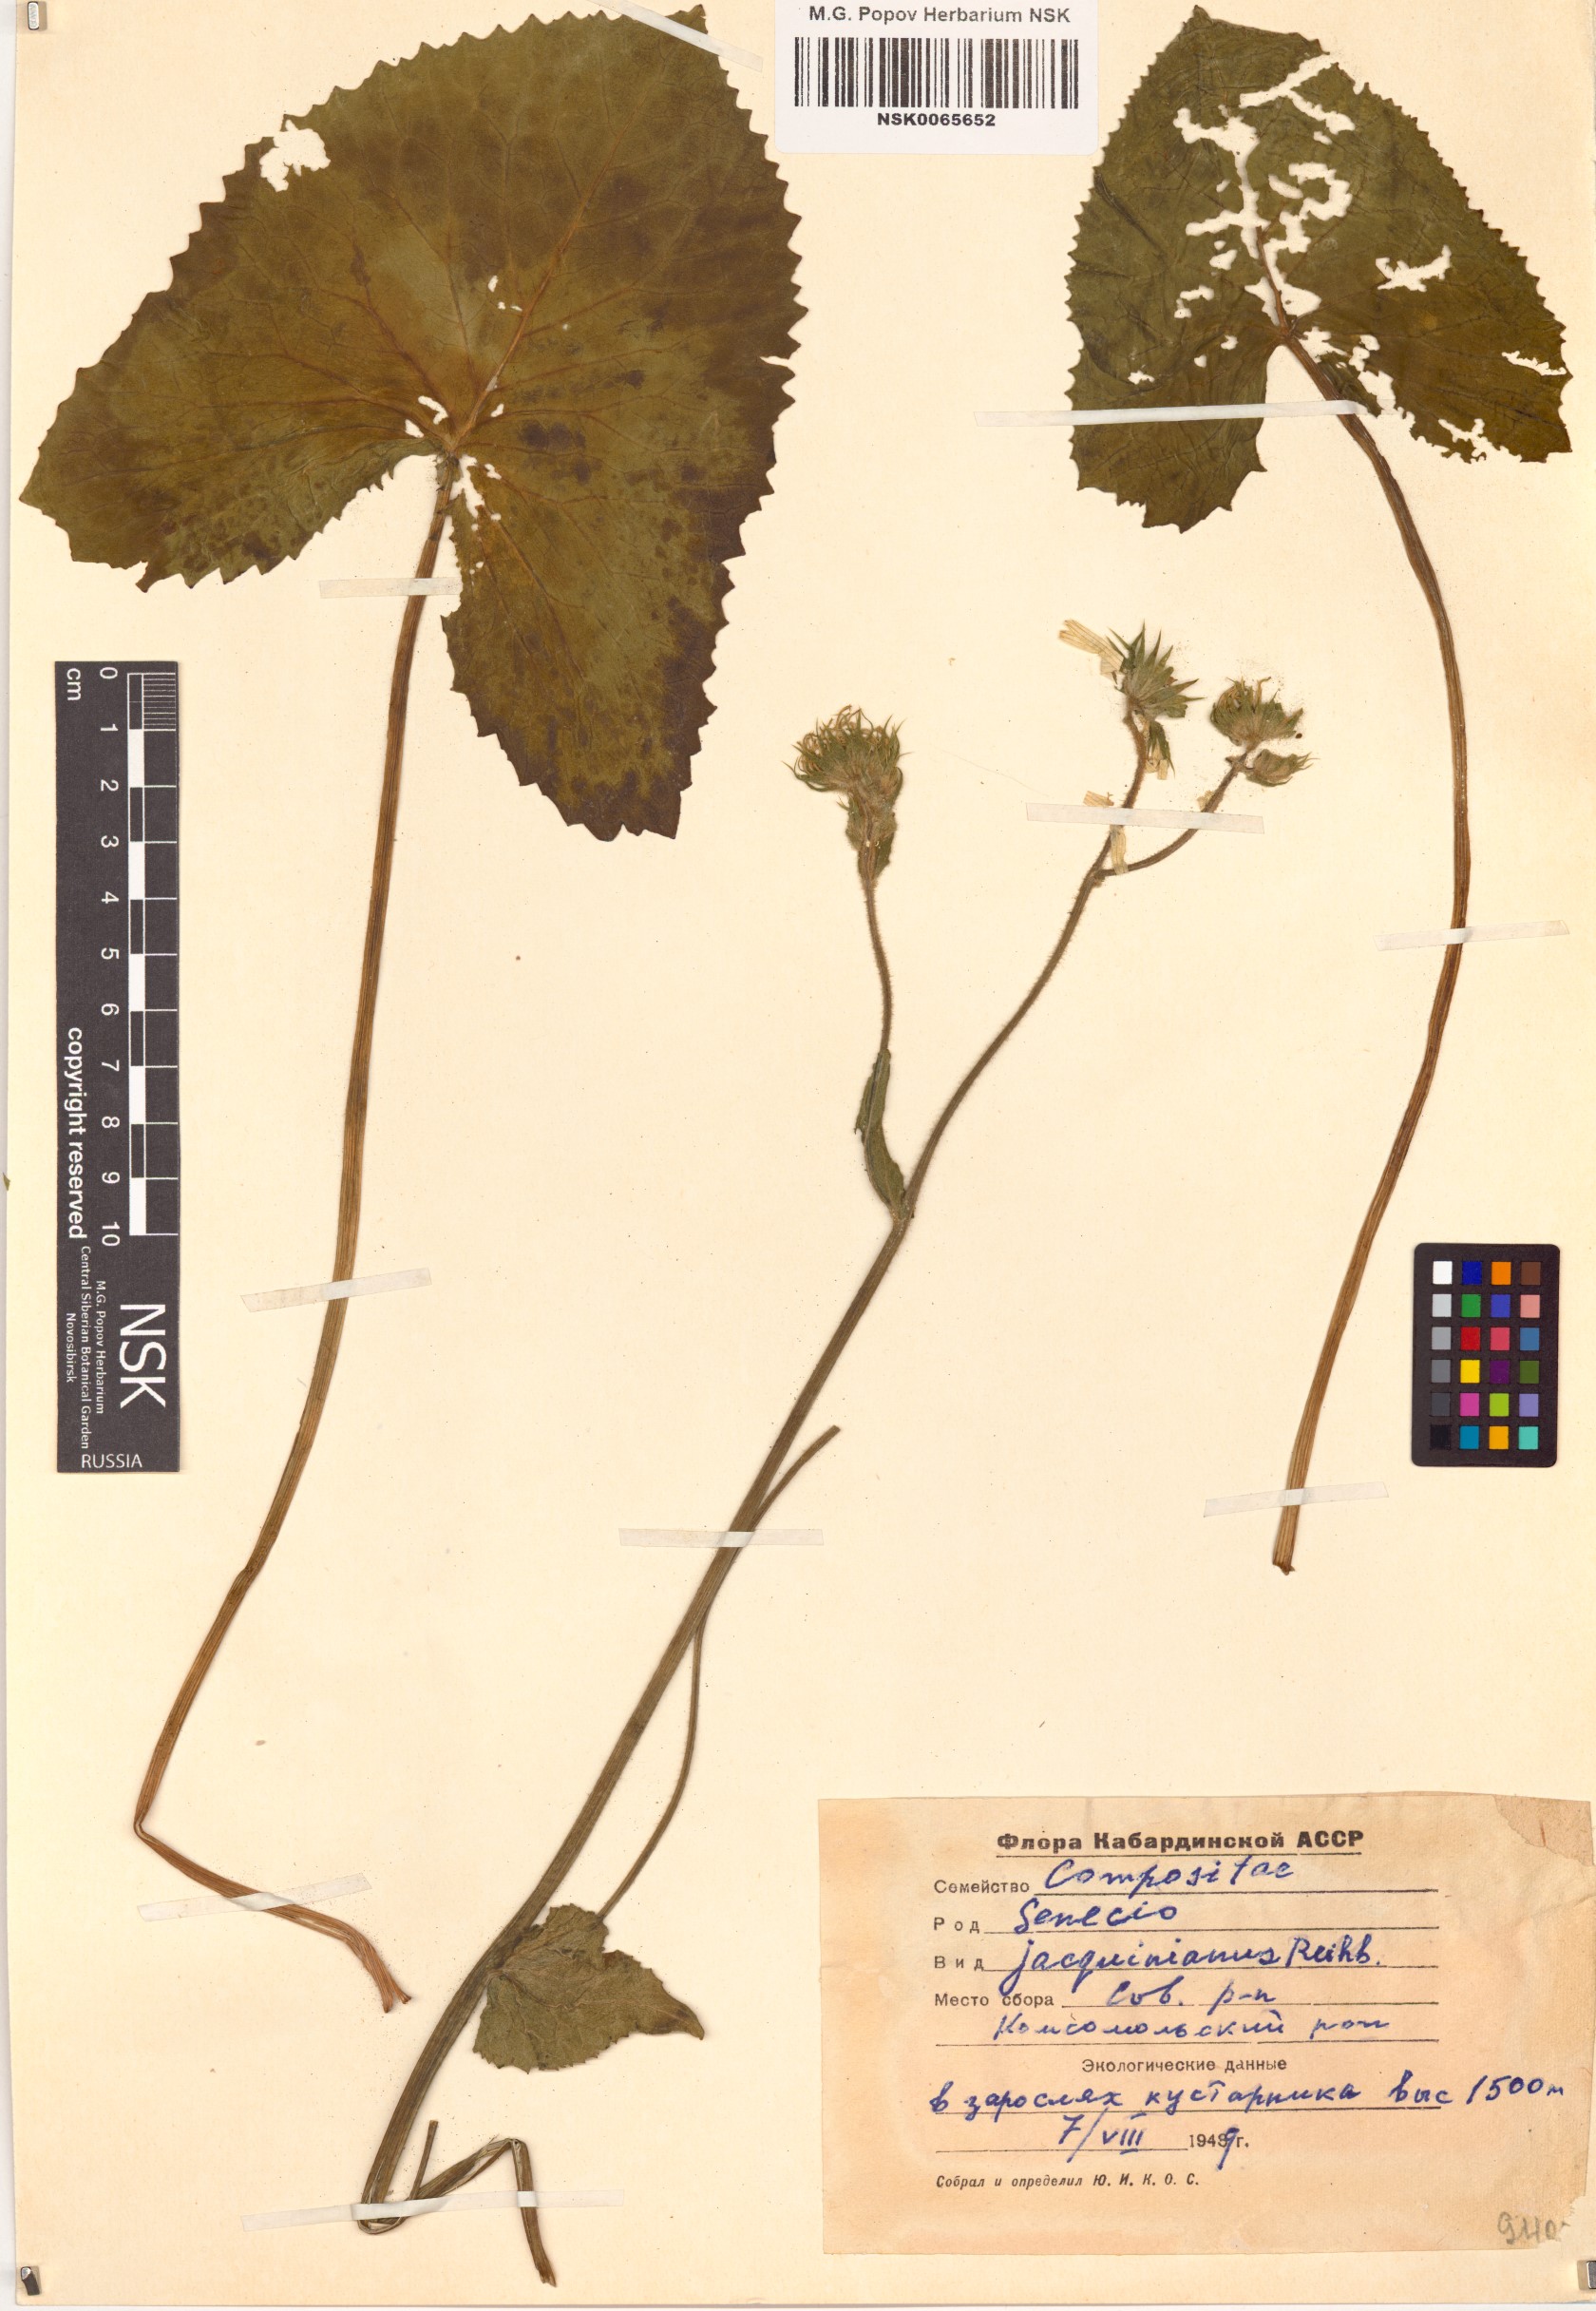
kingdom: Plantae
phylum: Tracheophyta
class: Magnoliopsida
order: Asterales
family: Asteraceae
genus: Senecio
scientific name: Senecio germanicus
